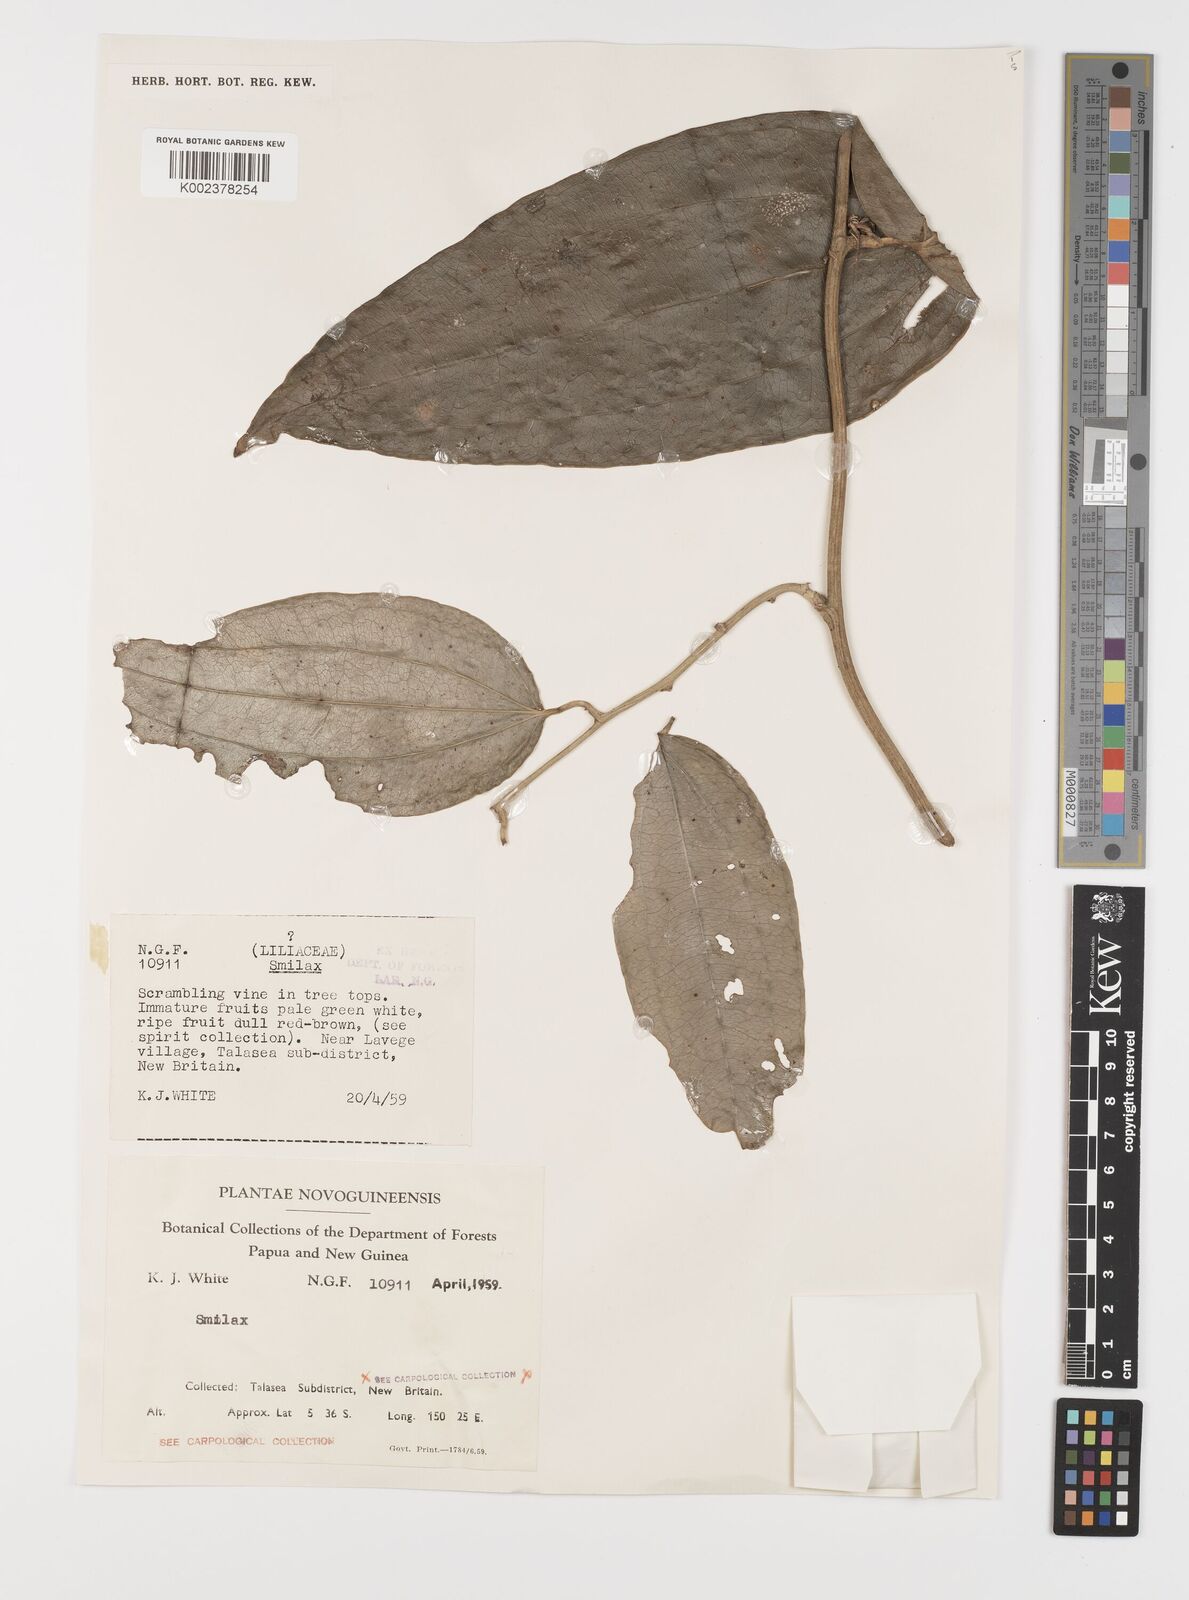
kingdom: Plantae
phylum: Tracheophyta
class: Liliopsida
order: Liliales
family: Smilacaceae
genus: Smilax
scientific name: Smilax
